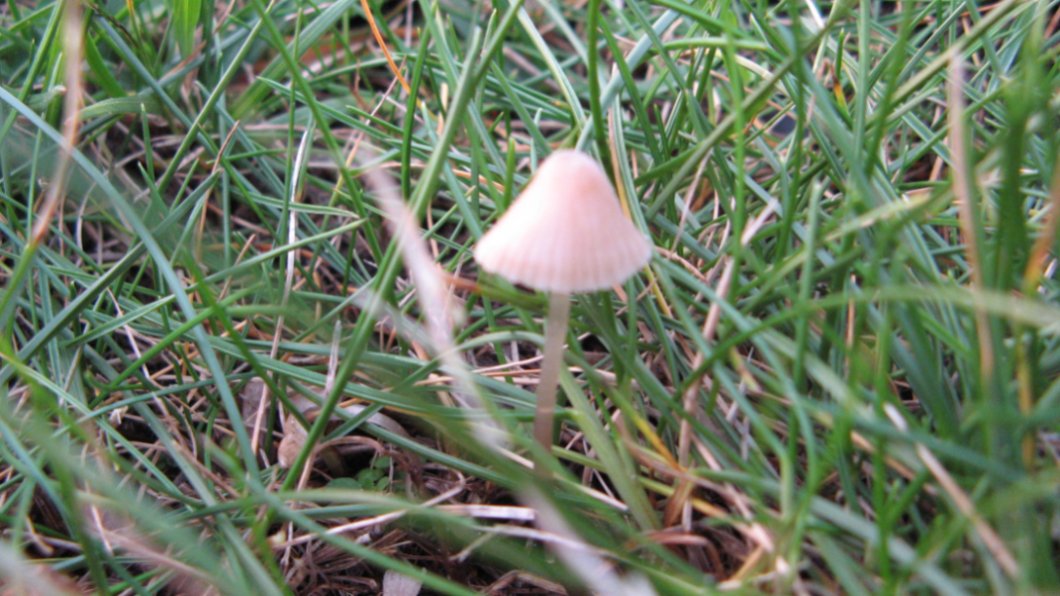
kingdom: Fungi
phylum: Basidiomycota
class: Agaricomycetes
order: Agaricales
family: Mycenaceae
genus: Mycena
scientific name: Mycena aetites
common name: plæne-huesvamp
